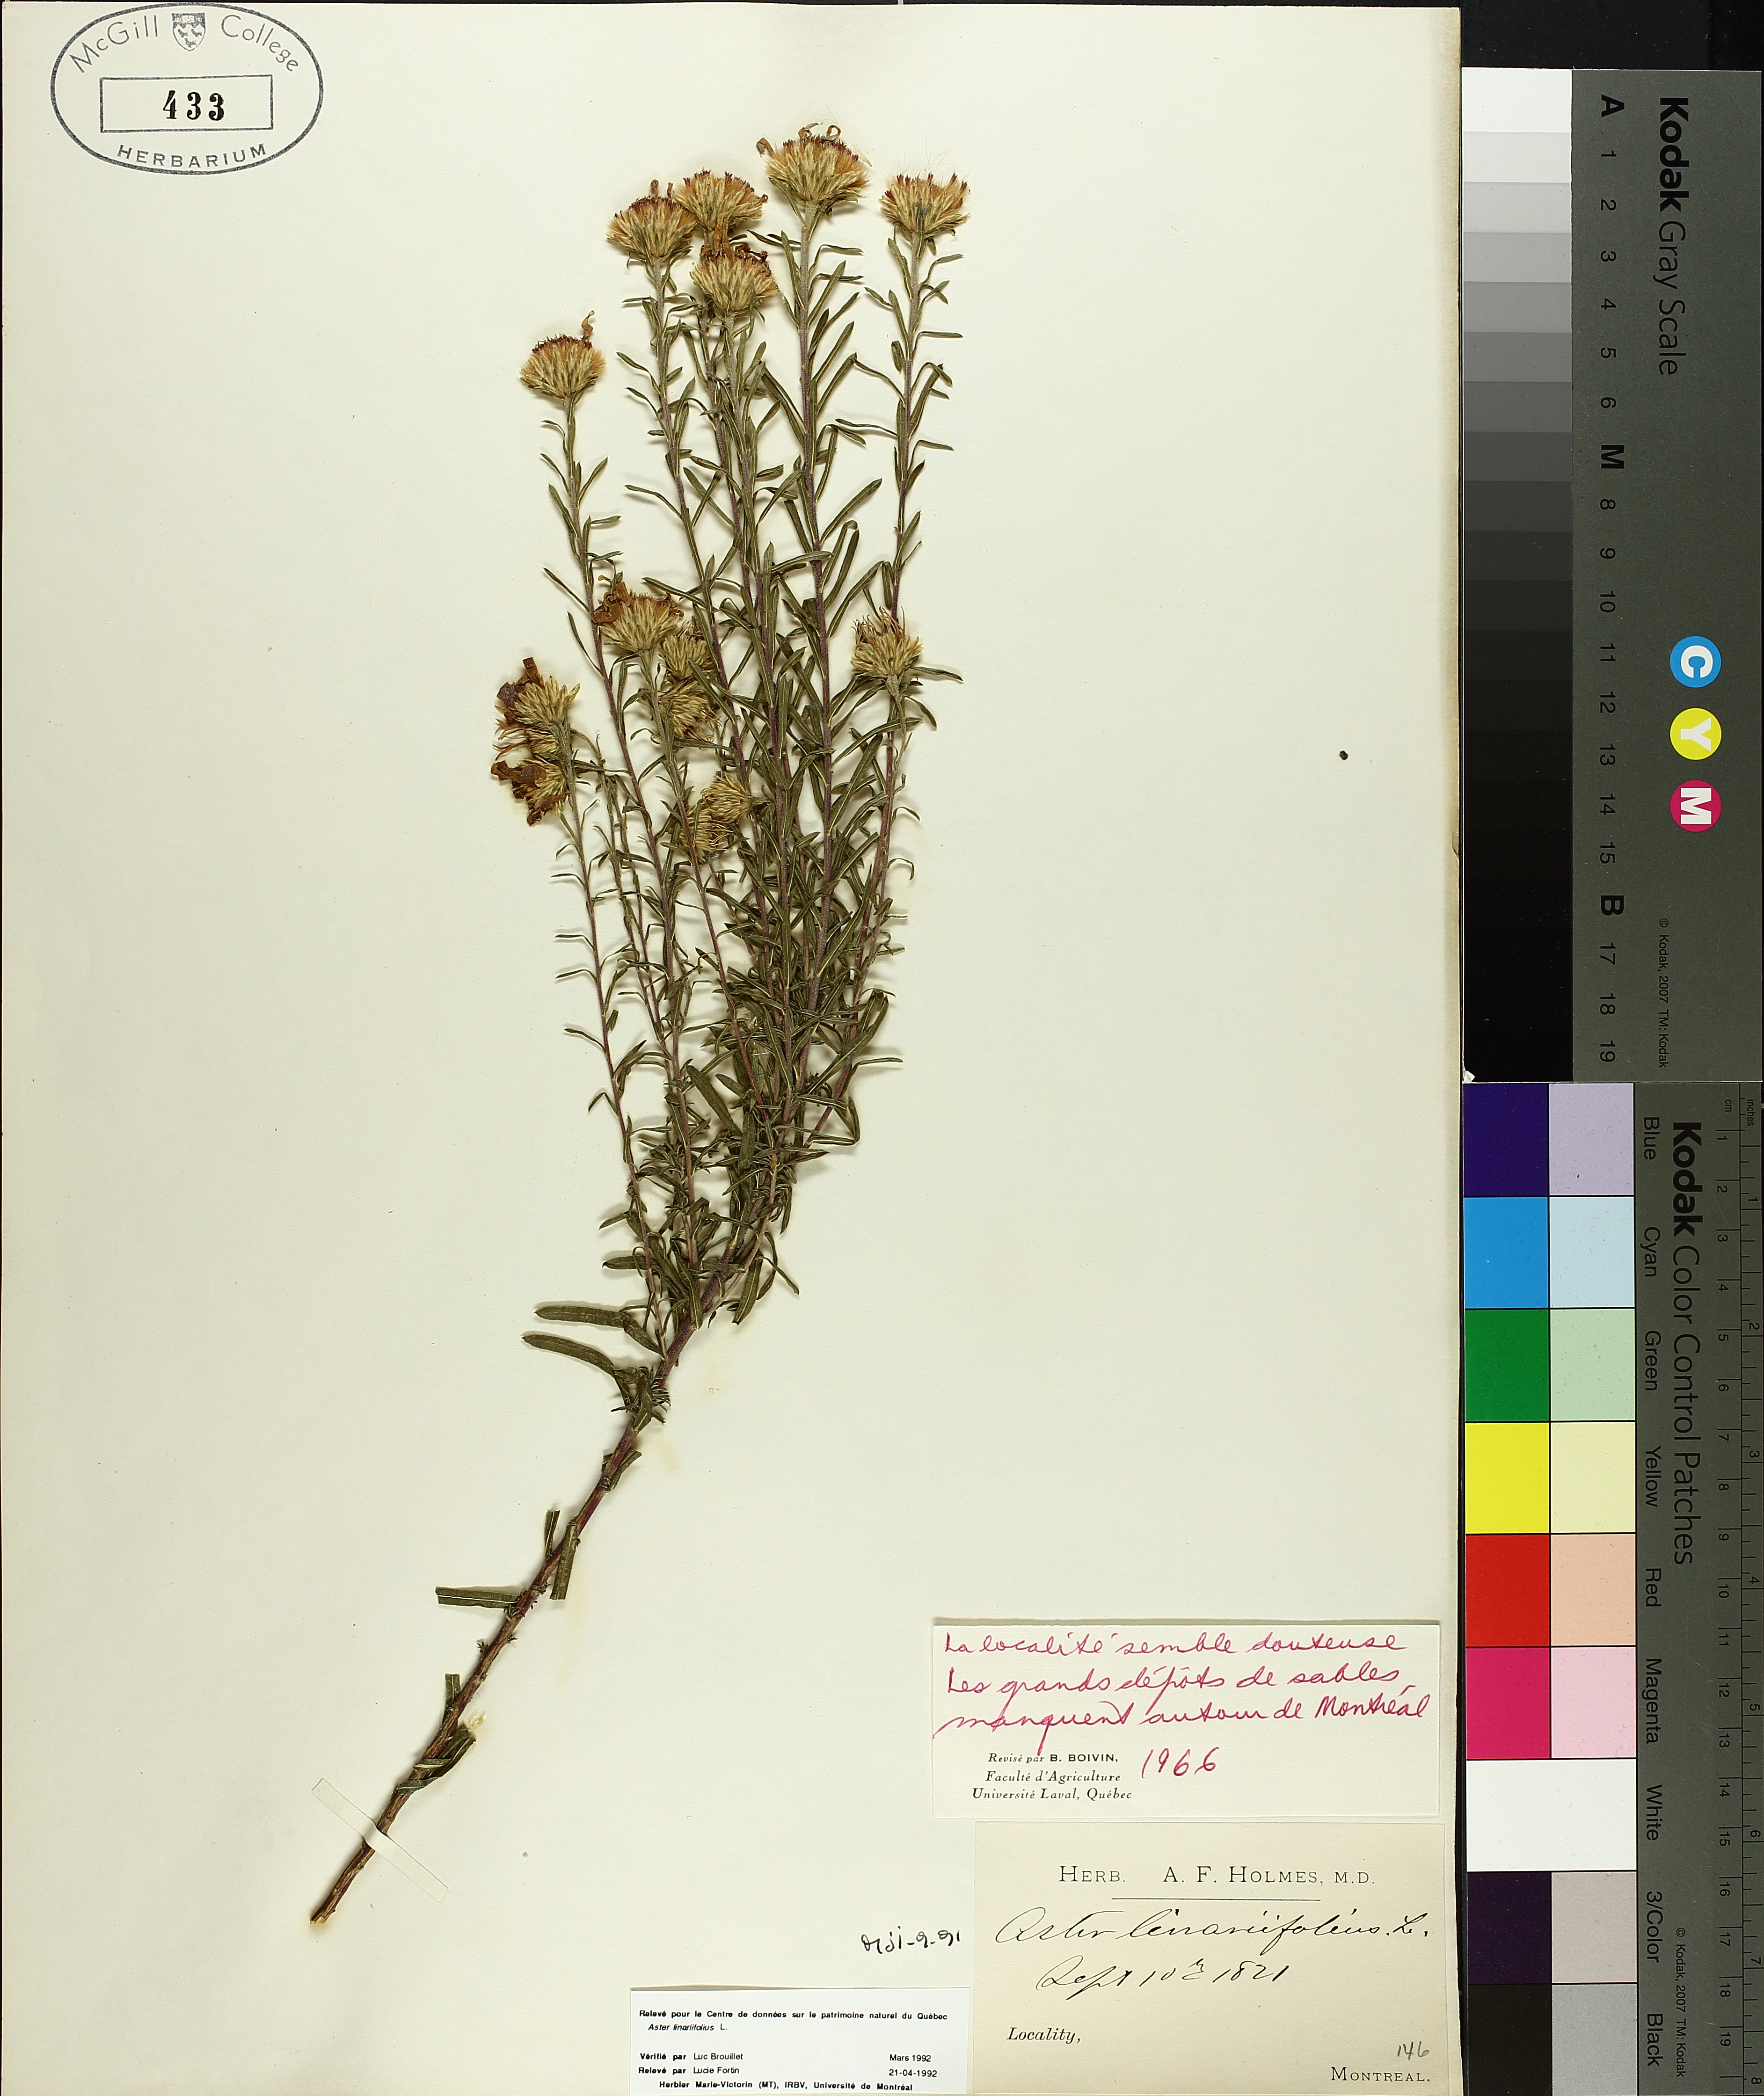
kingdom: Plantae
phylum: Tracheophyta
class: Magnoliopsida
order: Asterales
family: Asteraceae
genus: Ionactis
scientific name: Ionactis linariifolia
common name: Flax-leaf aster
